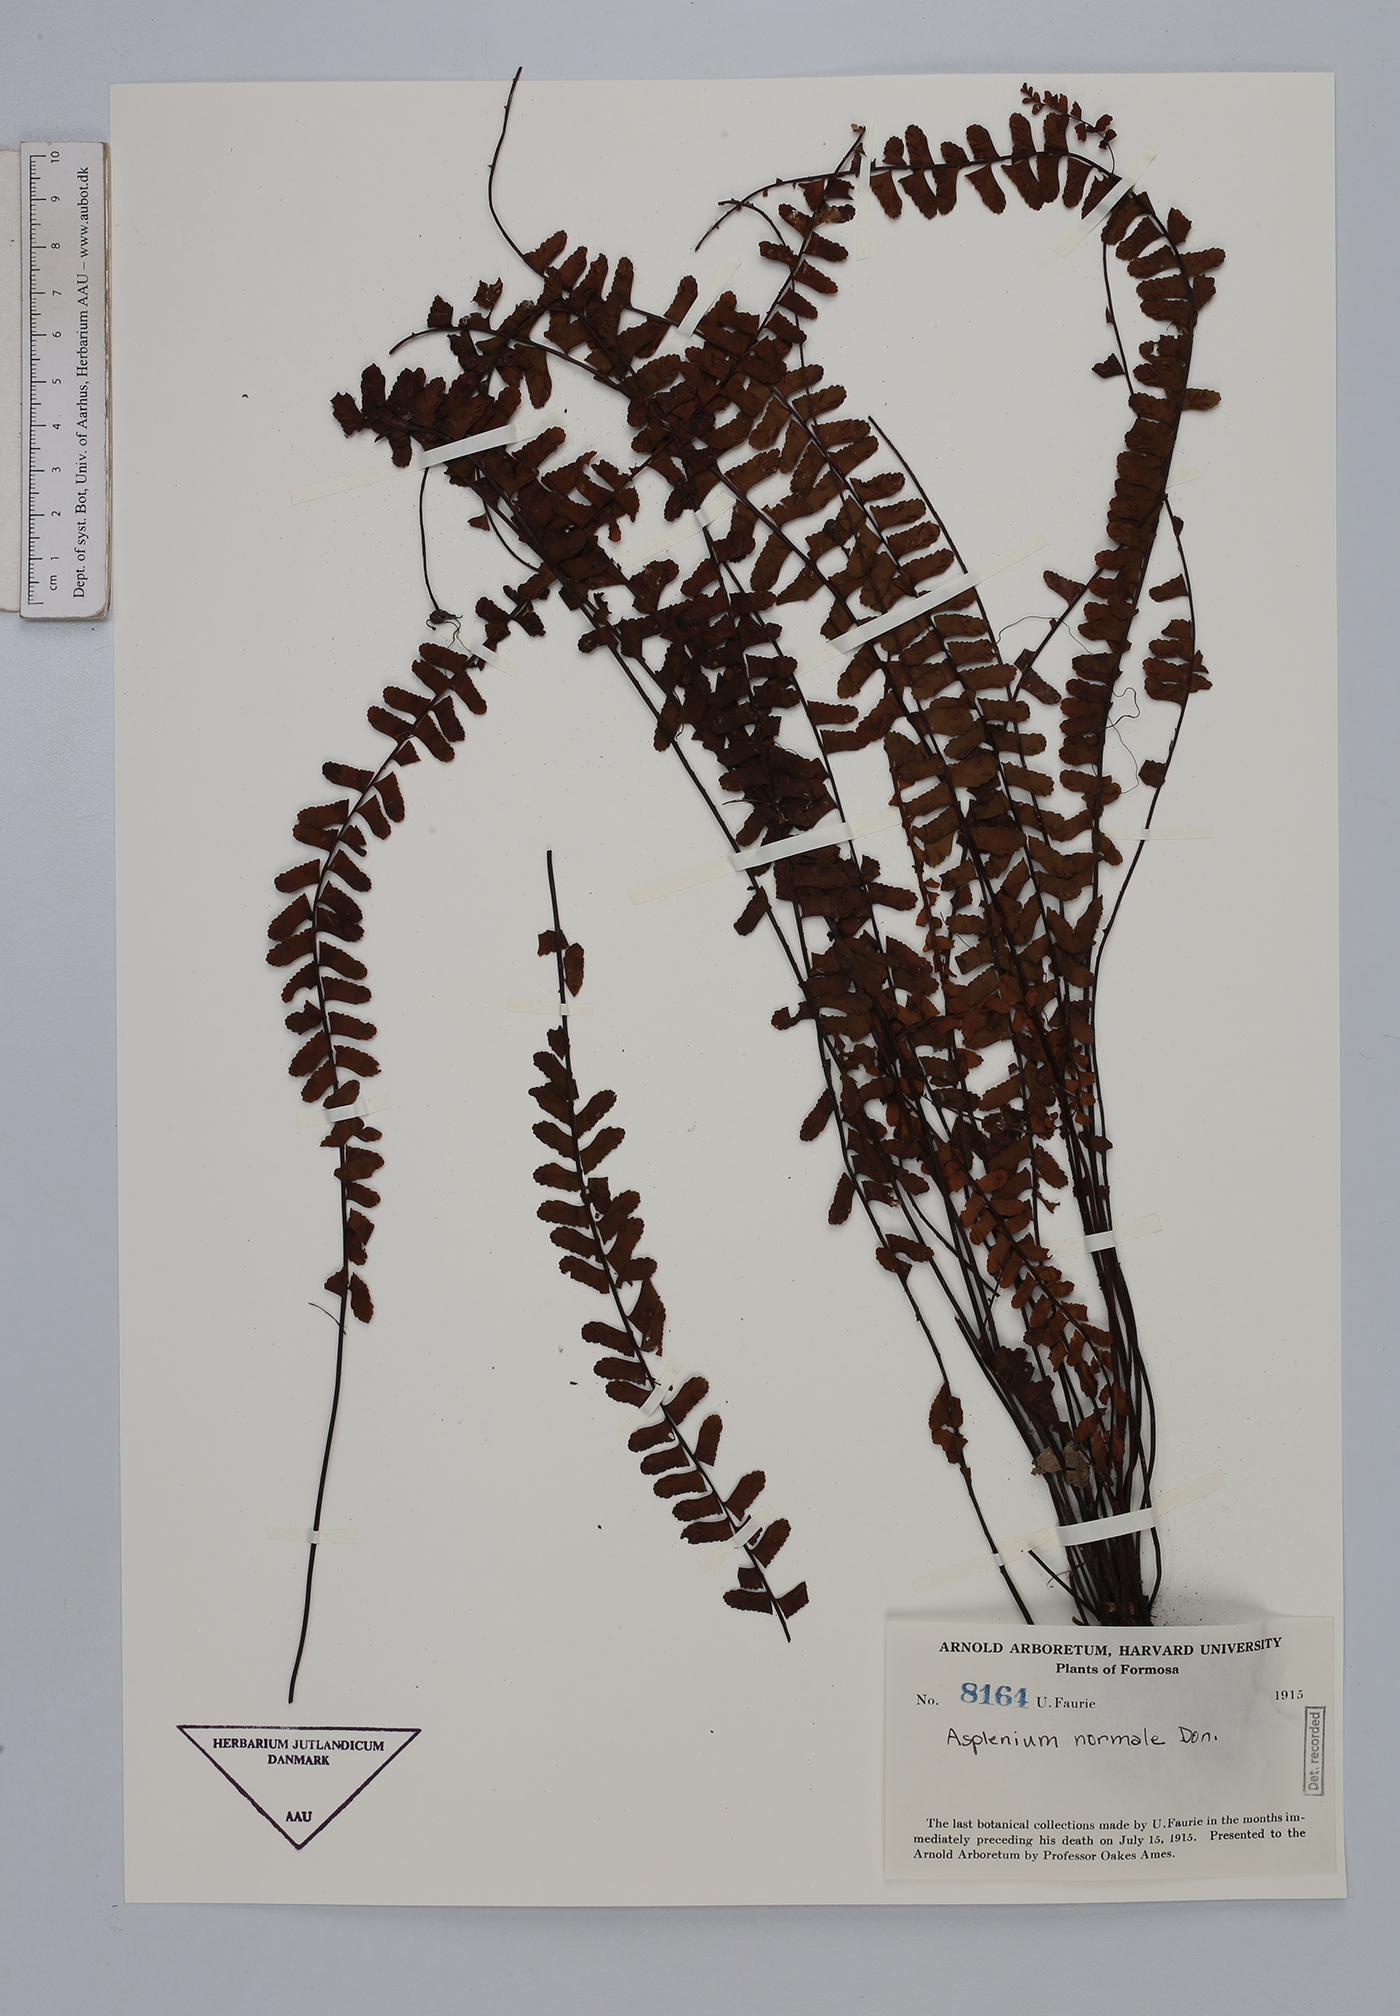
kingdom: Plantae
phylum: Tracheophyta
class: Polypodiopsida
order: Polypodiales
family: Aspleniaceae
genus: Asplenium
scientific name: Asplenium normale
